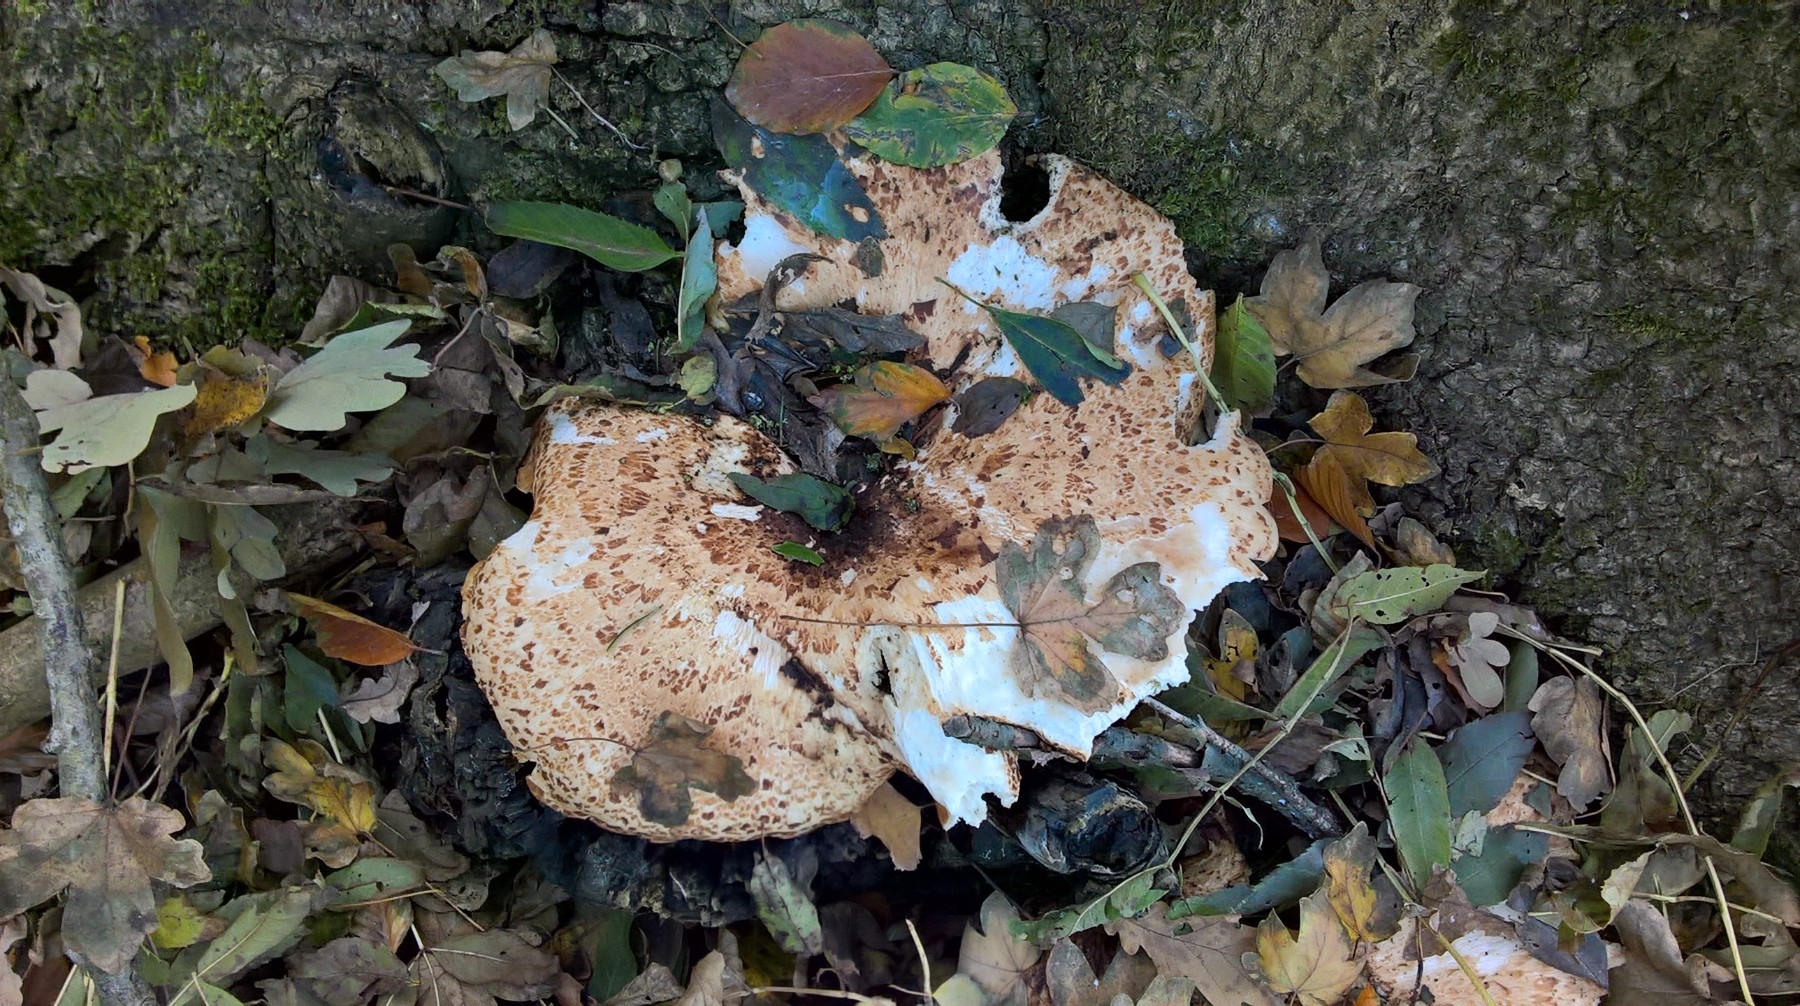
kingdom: Fungi
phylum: Basidiomycota
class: Agaricomycetes
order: Polyporales
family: Polyporaceae
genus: Cerioporus
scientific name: Cerioporus squamosus
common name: skællet stilkporesvamp
